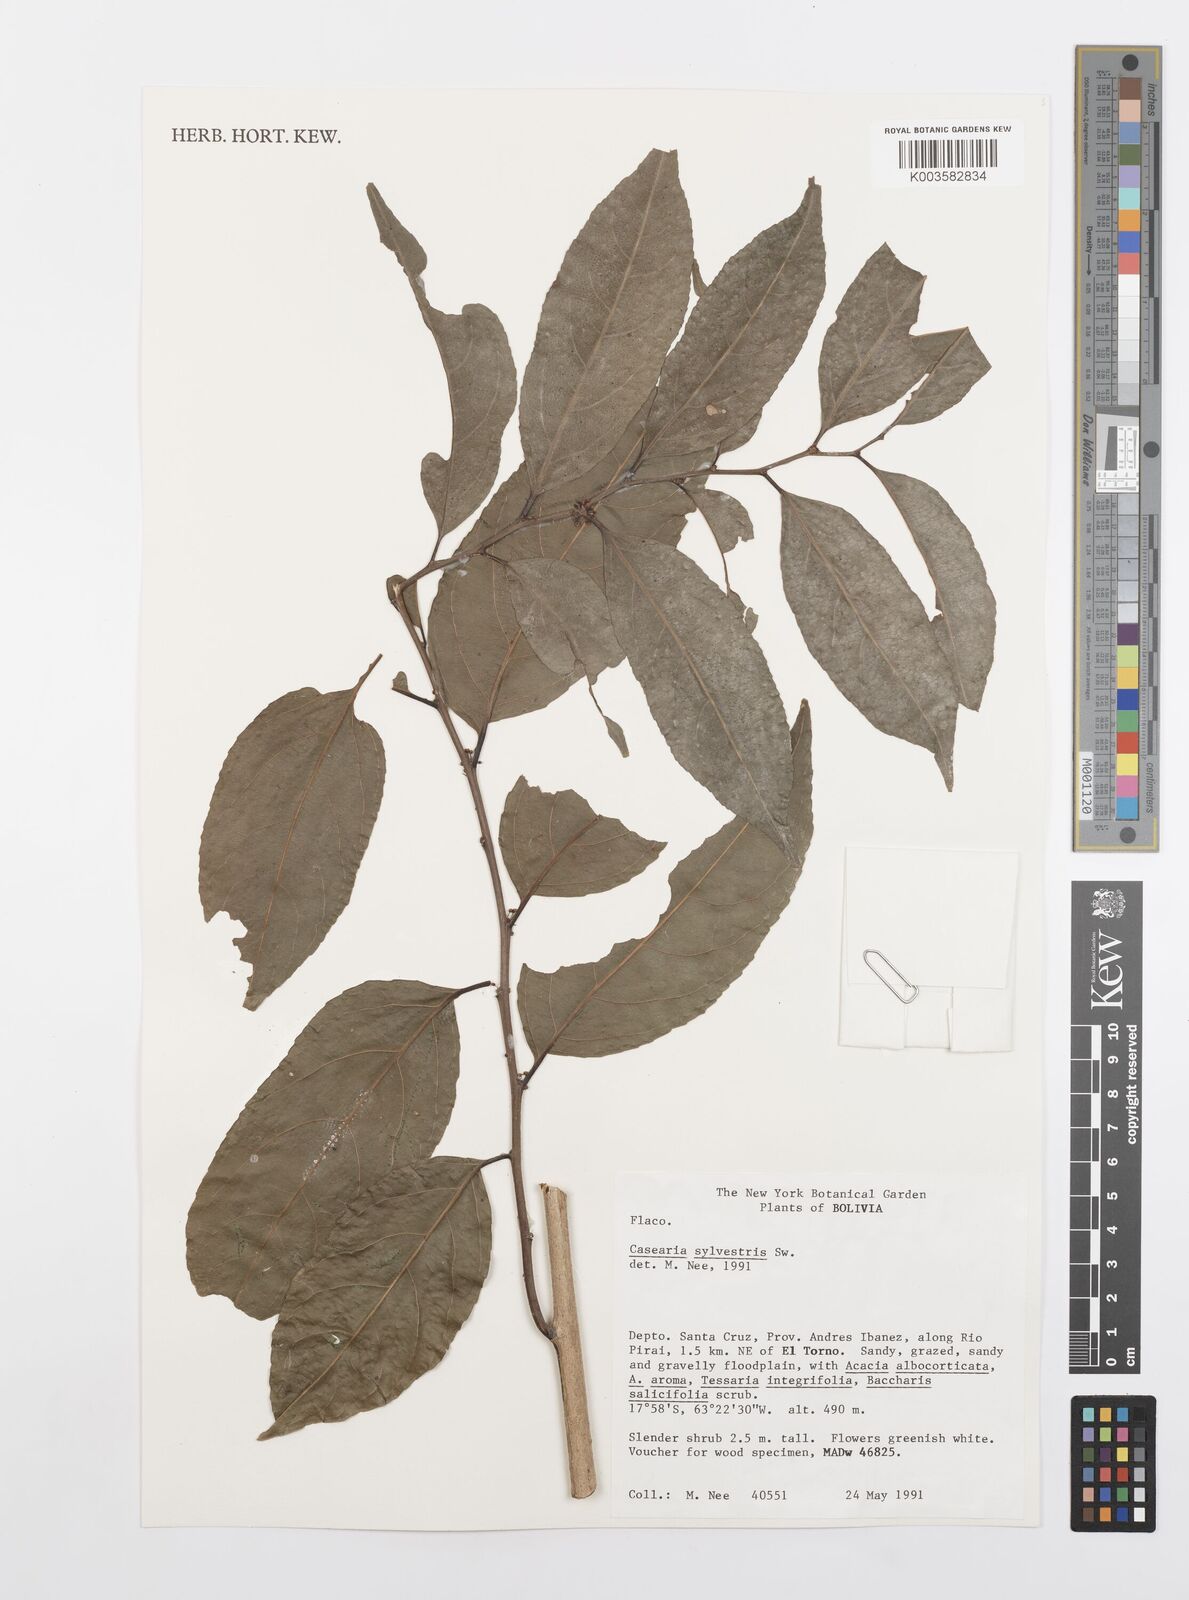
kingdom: Plantae
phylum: Tracheophyta
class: Magnoliopsida
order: Malpighiales
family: Salicaceae
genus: Casearia
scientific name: Casearia sylvestris
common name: Wild sage
